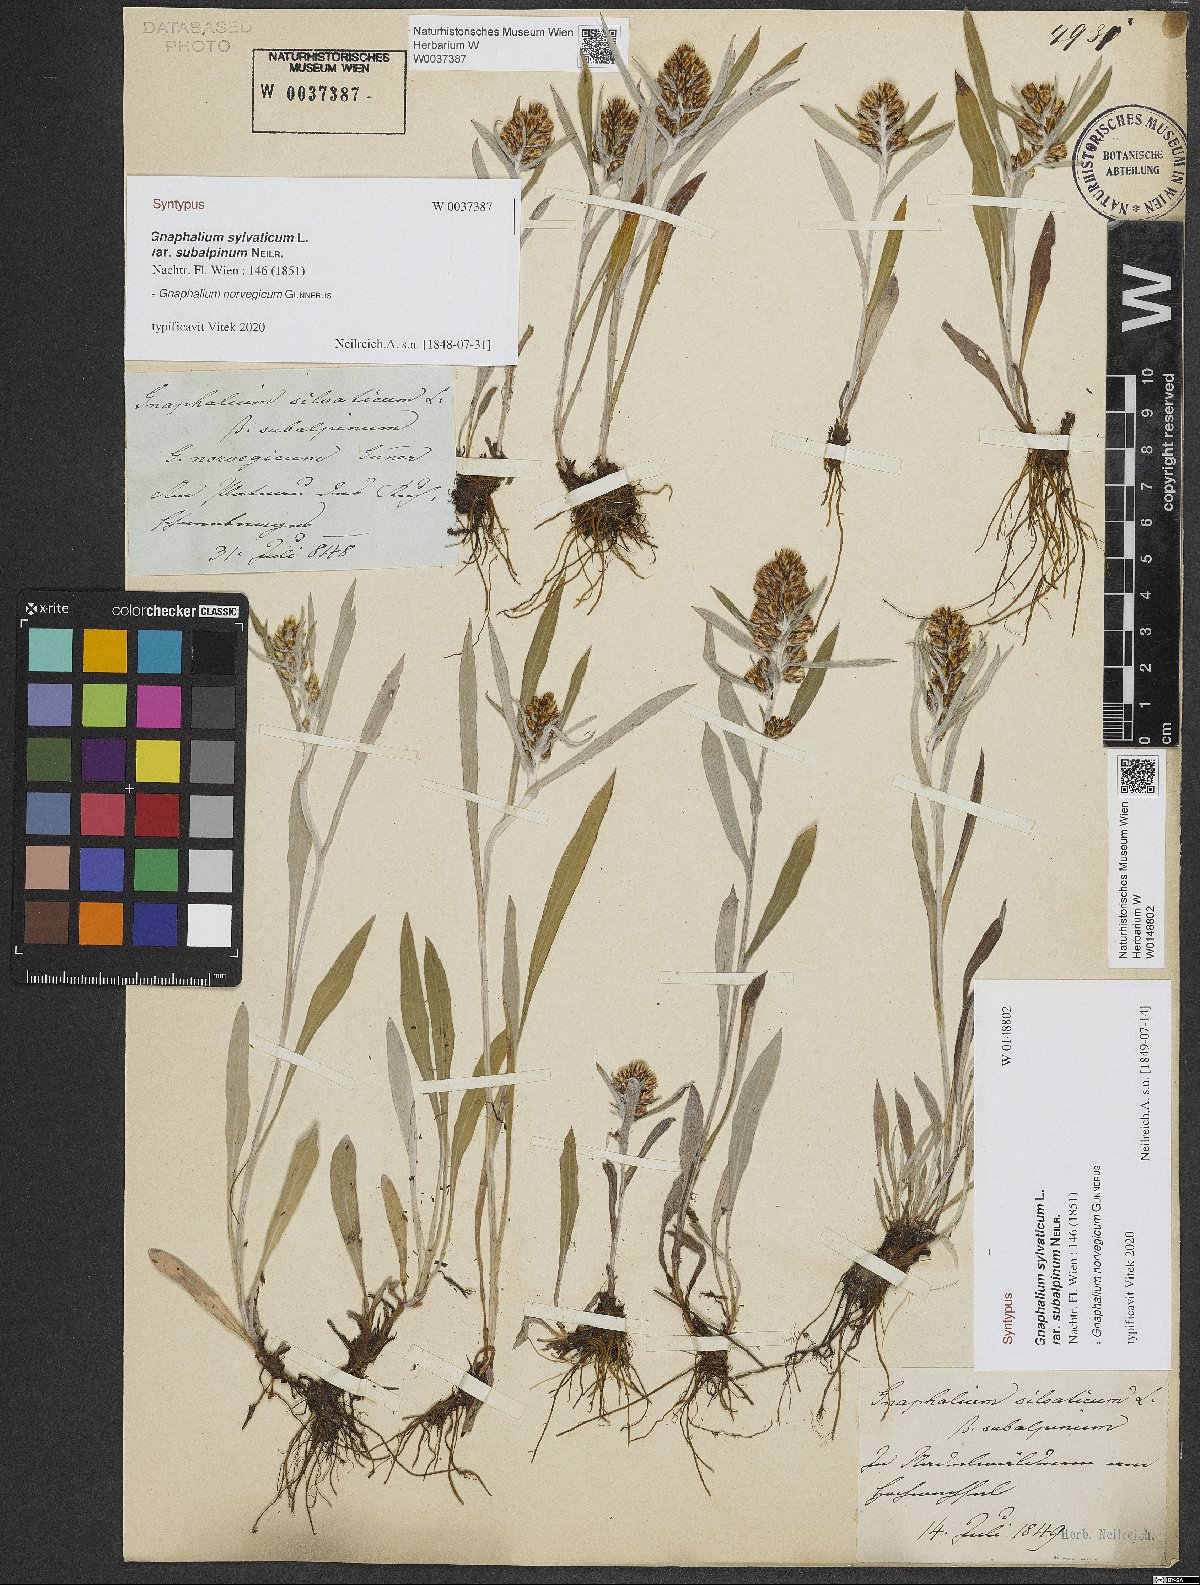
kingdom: Plantae
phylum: Tracheophyta
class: Magnoliopsida
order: Asterales
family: Asteraceae
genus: Omalotheca
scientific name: Omalotheca norvegica
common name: Norwegian arctic-cudweed
